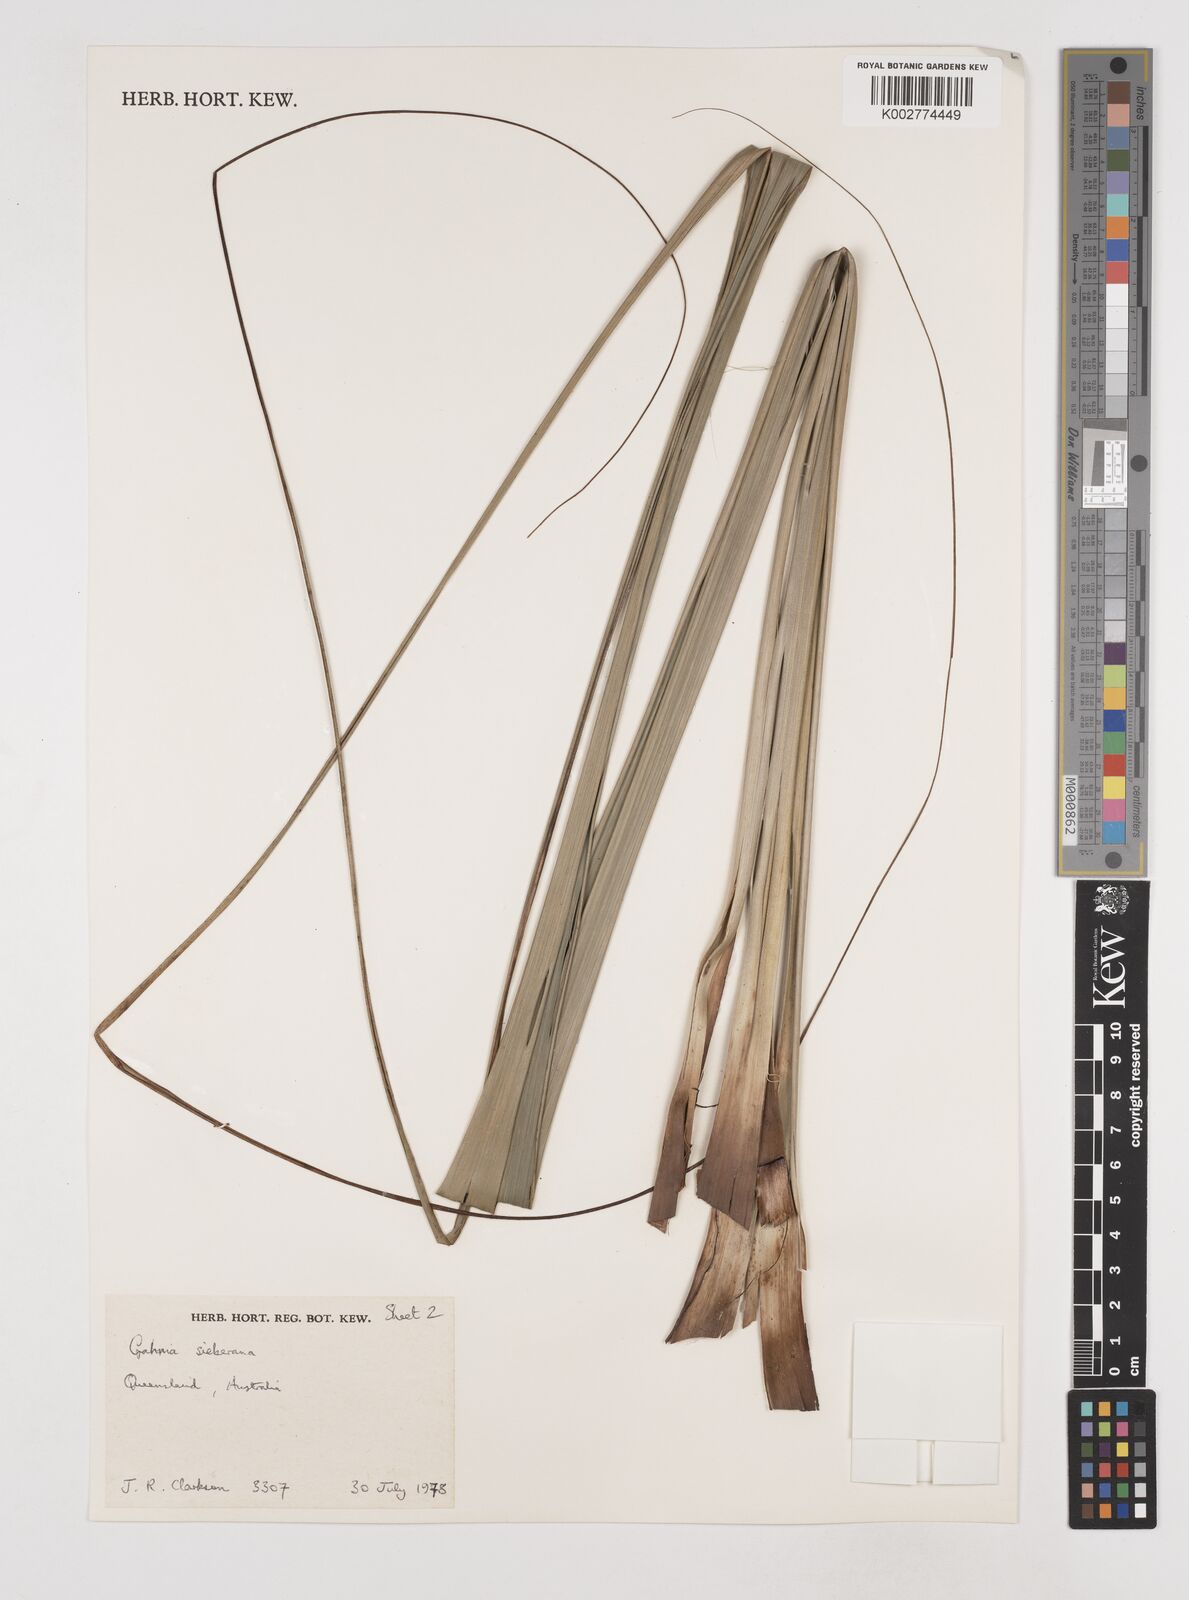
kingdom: Plantae
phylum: Tracheophyta
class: Liliopsida
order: Poales
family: Cyperaceae
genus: Gahnia
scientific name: Gahnia sieberiana
